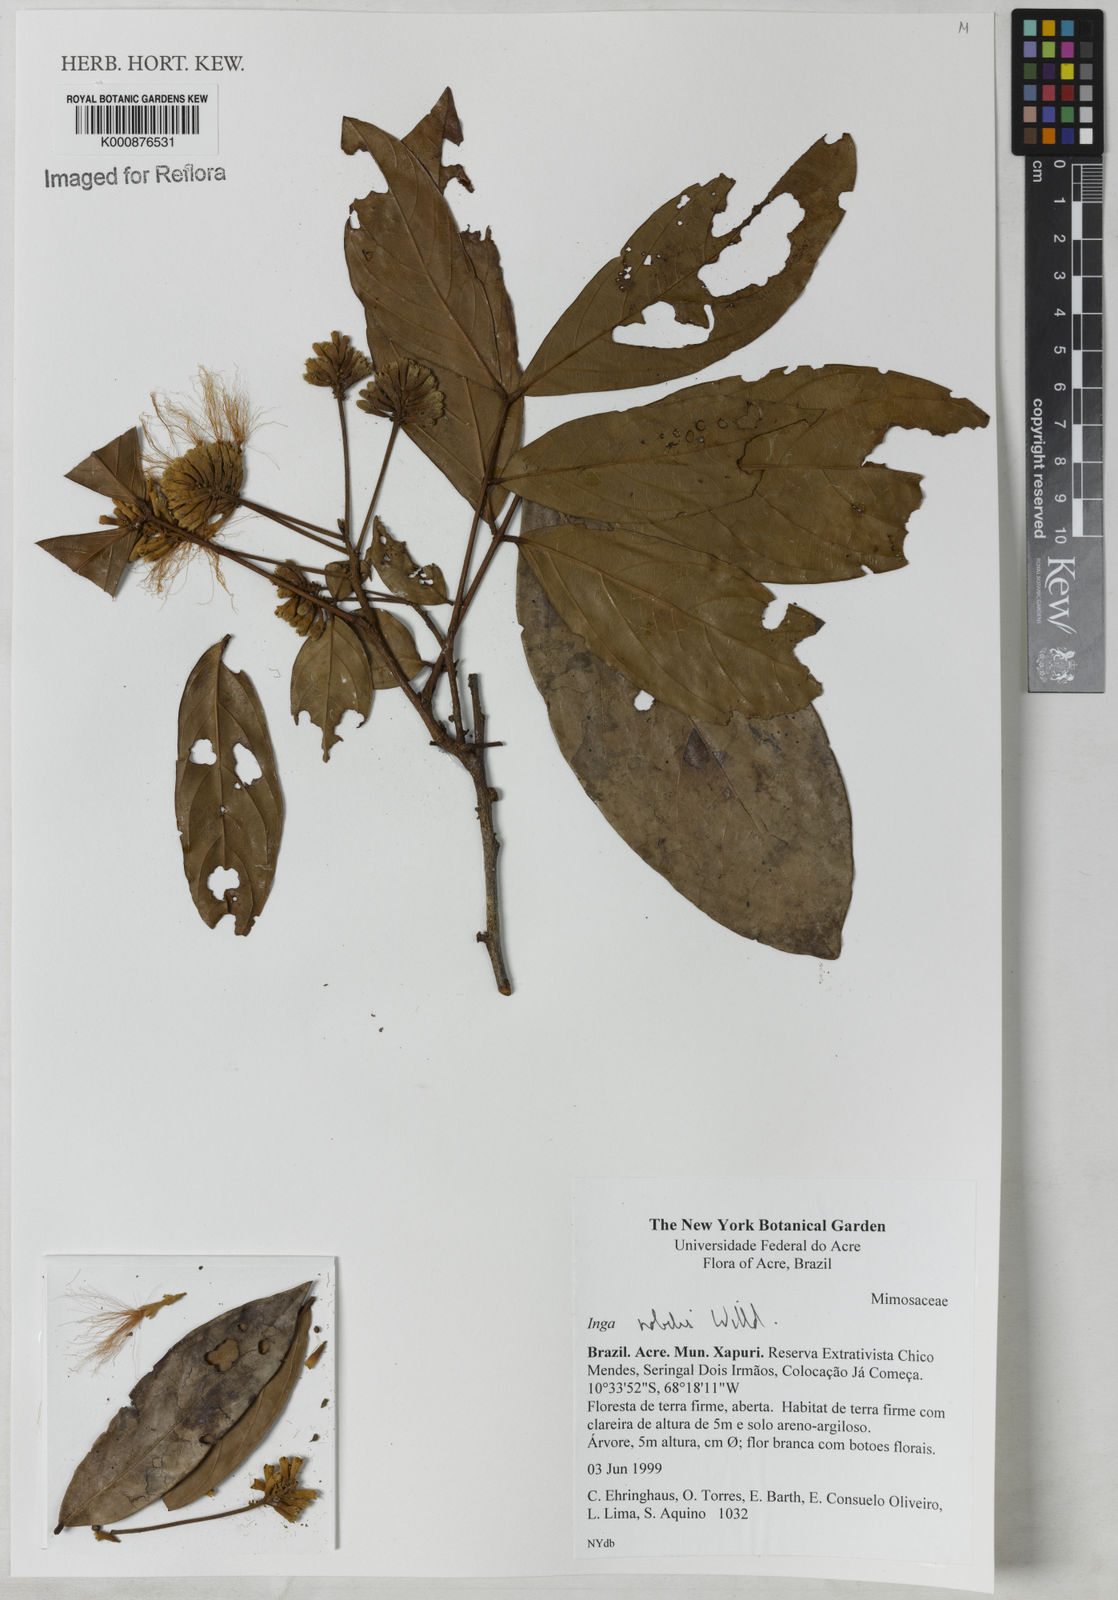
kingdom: Plantae
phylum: Tracheophyta
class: Magnoliopsida
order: Fabales
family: Fabaceae
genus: Inga
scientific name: Inga nobilis
